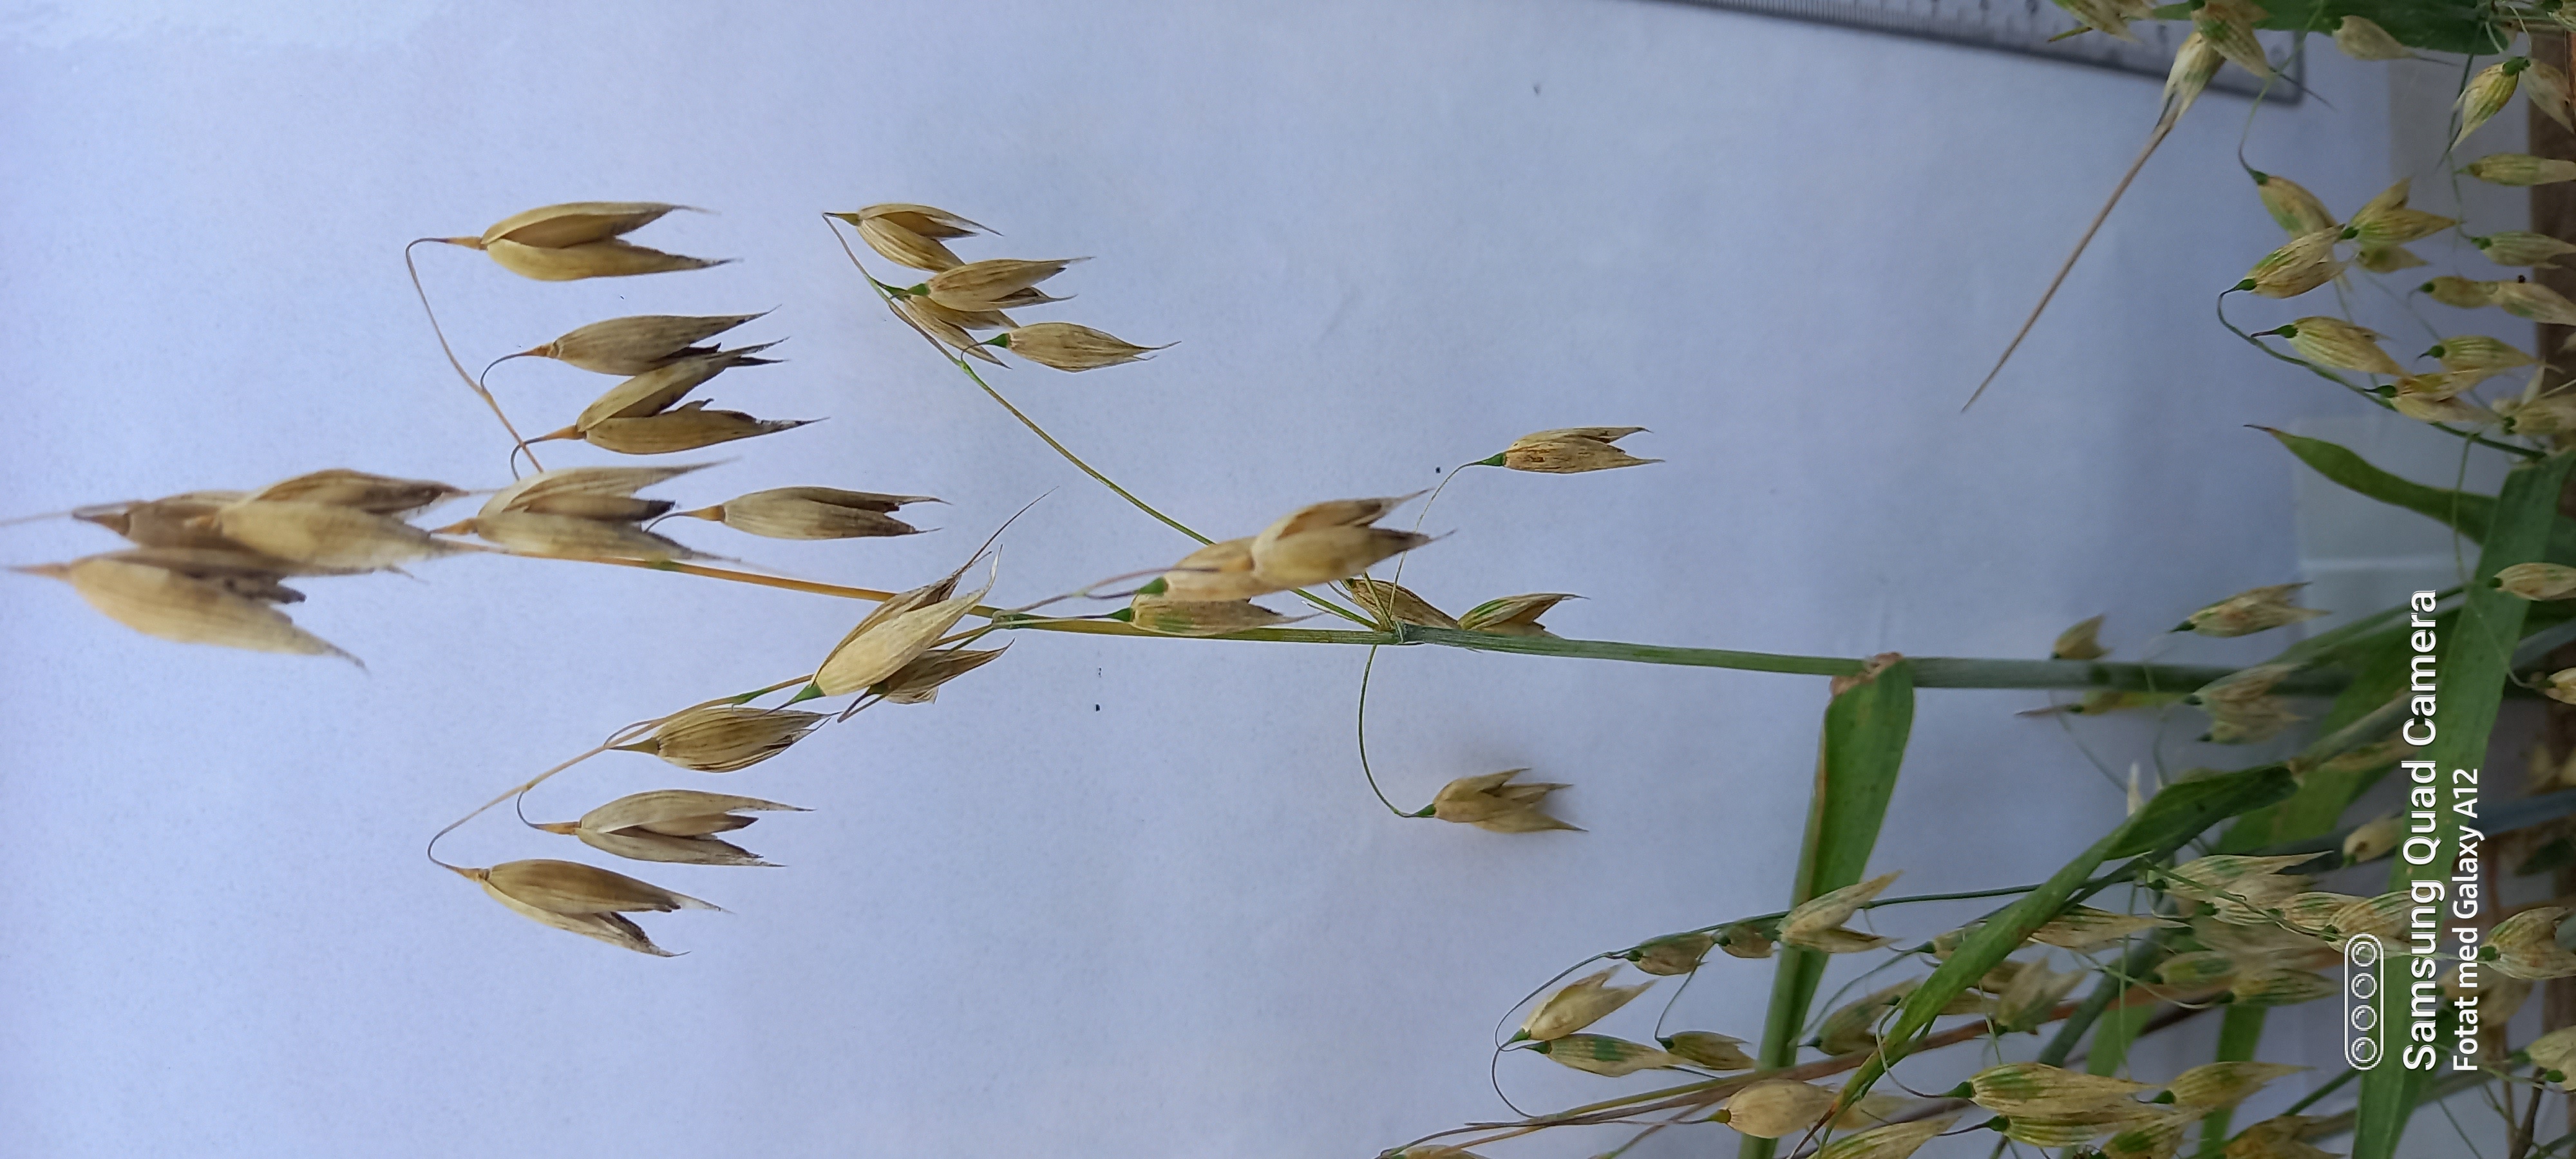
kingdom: Plantae
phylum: Tracheophyta
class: Liliopsida
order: Poales
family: Poaceae
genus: Avena
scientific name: Avena sativa
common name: Oat
